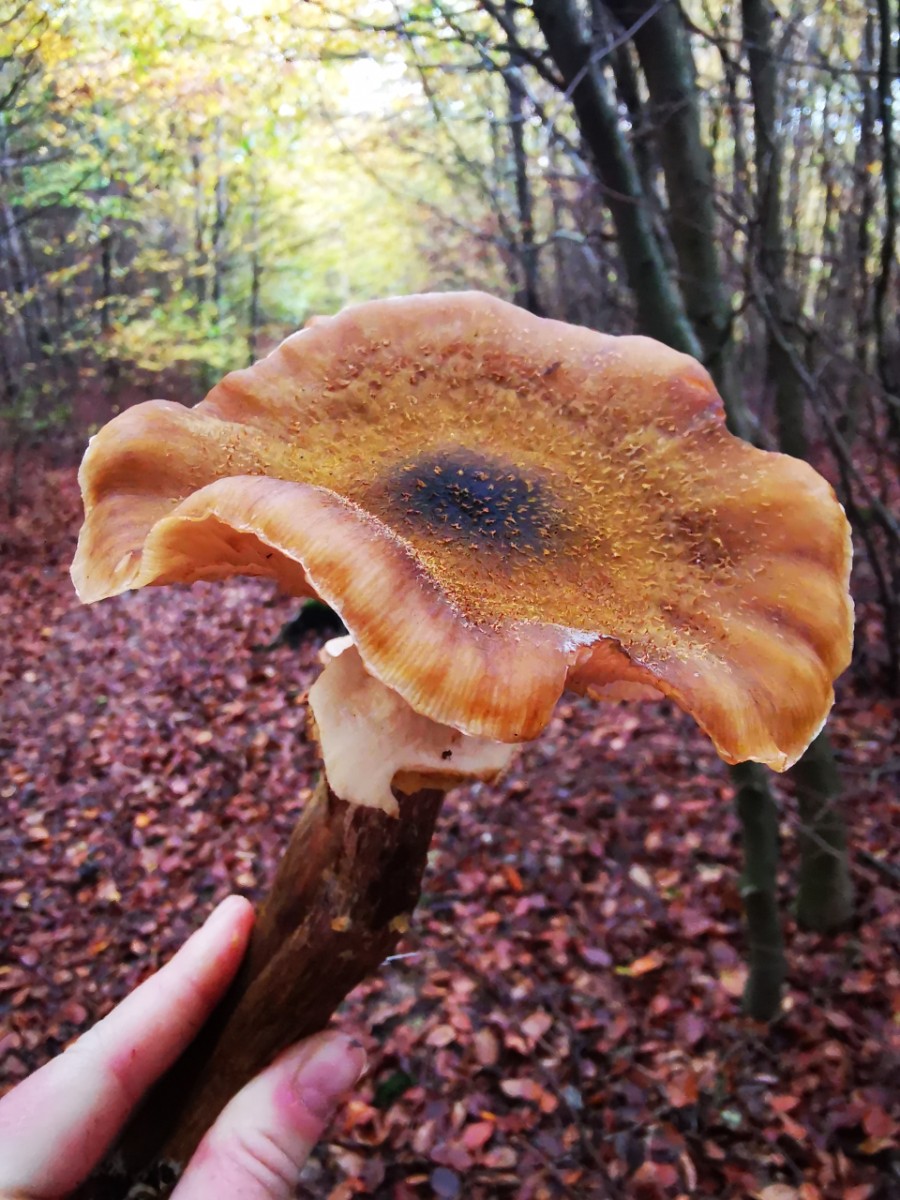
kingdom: Fungi
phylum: Basidiomycota
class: Agaricomycetes
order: Agaricales
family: Physalacriaceae
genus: Armillaria
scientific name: Armillaria lutea
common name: køllestokket honningsvamp
